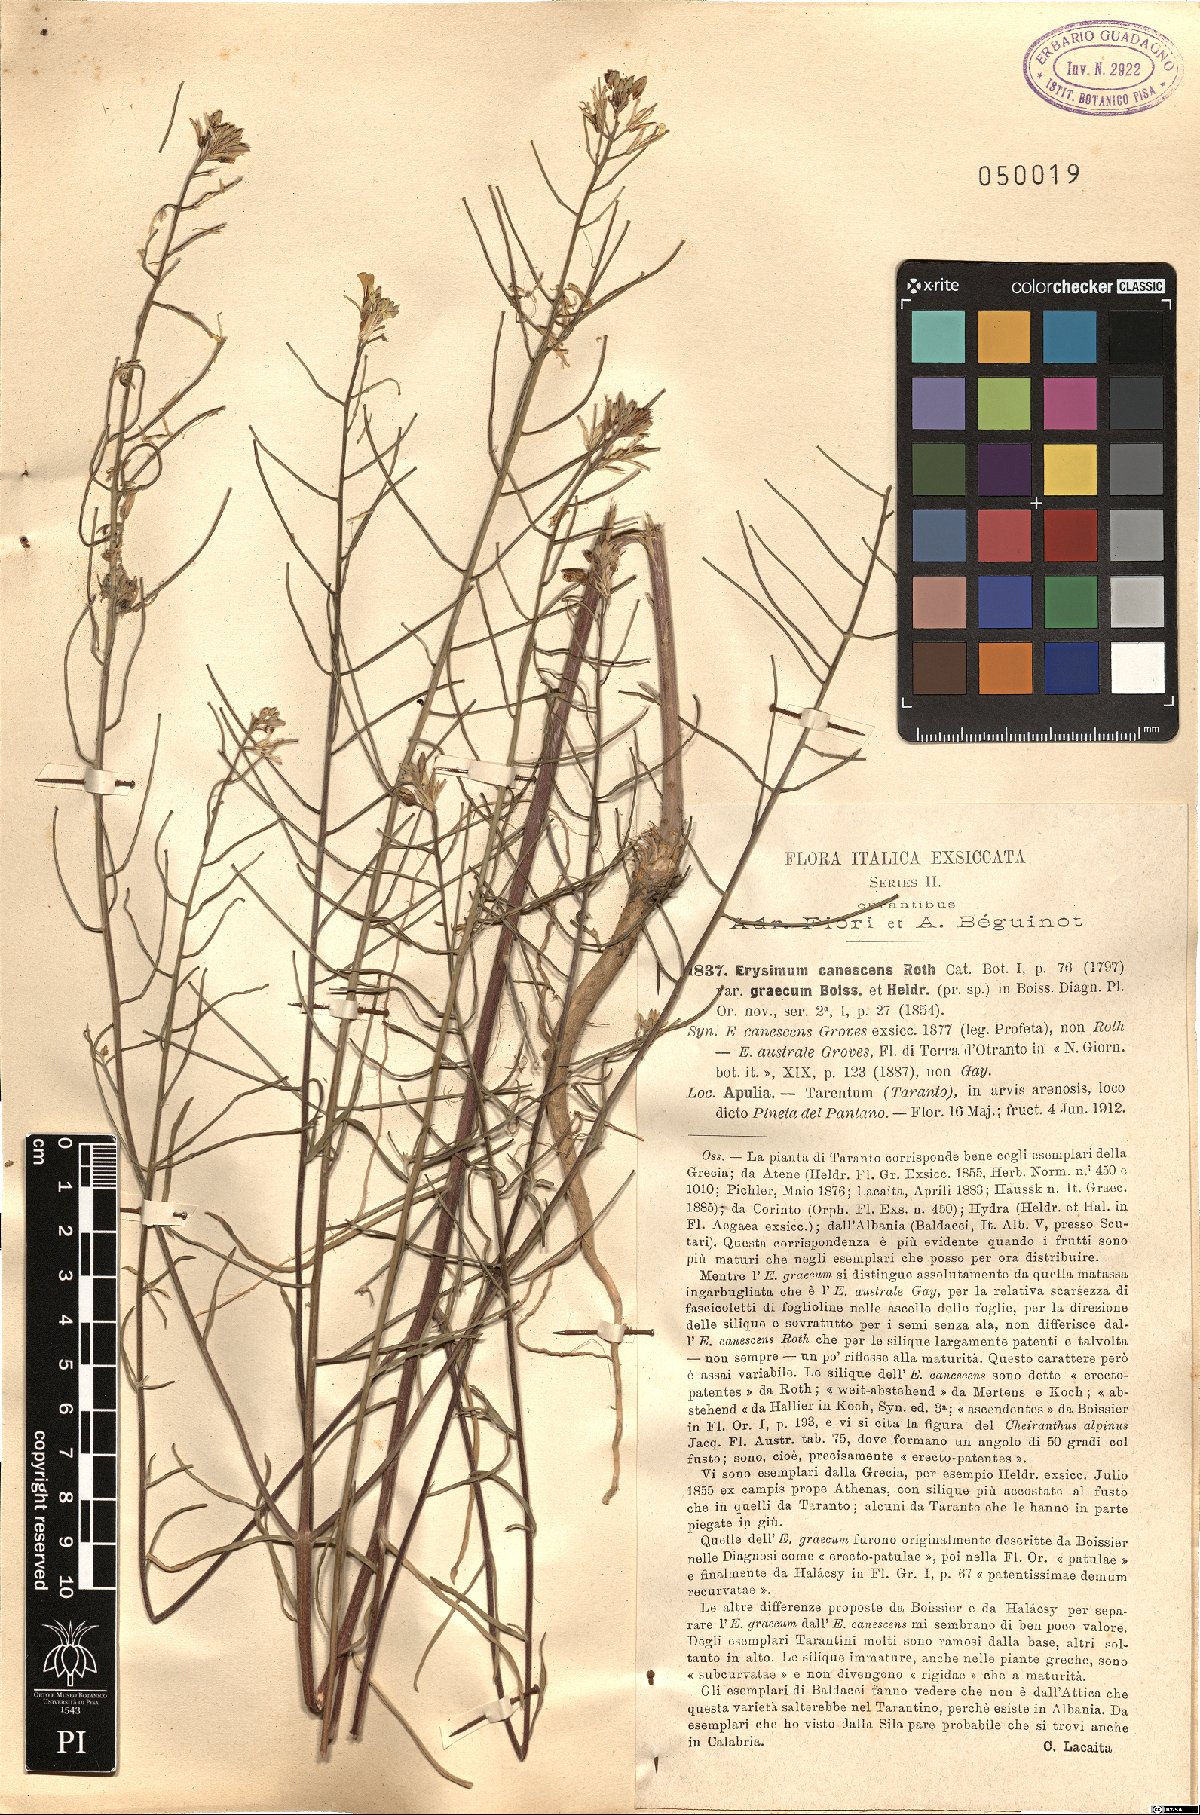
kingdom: Plantae
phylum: Tracheophyta
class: Magnoliopsida
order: Brassicales
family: Brassicaceae
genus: Erysimum
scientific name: Erysimum canescens
